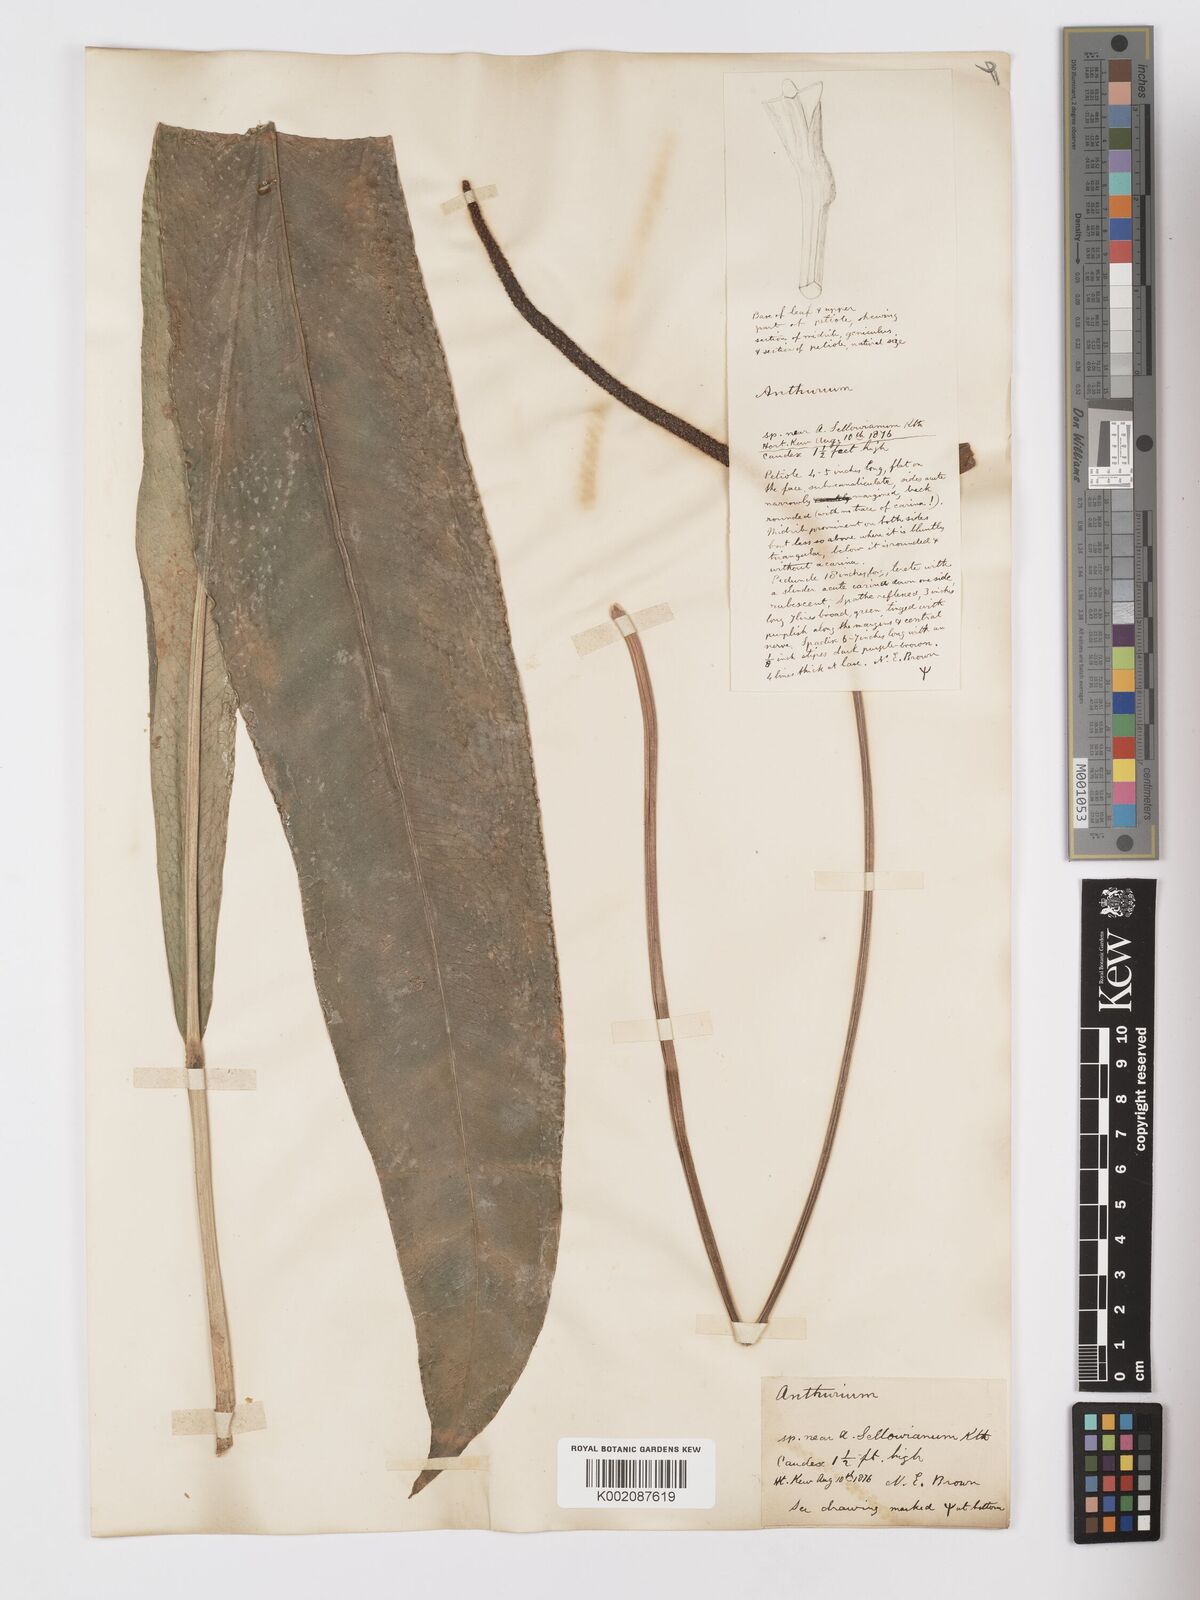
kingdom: Plantae
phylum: Tracheophyta
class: Liliopsida
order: Alismatales
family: Araceae
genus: Anthurium
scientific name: Anthurium intermedium
